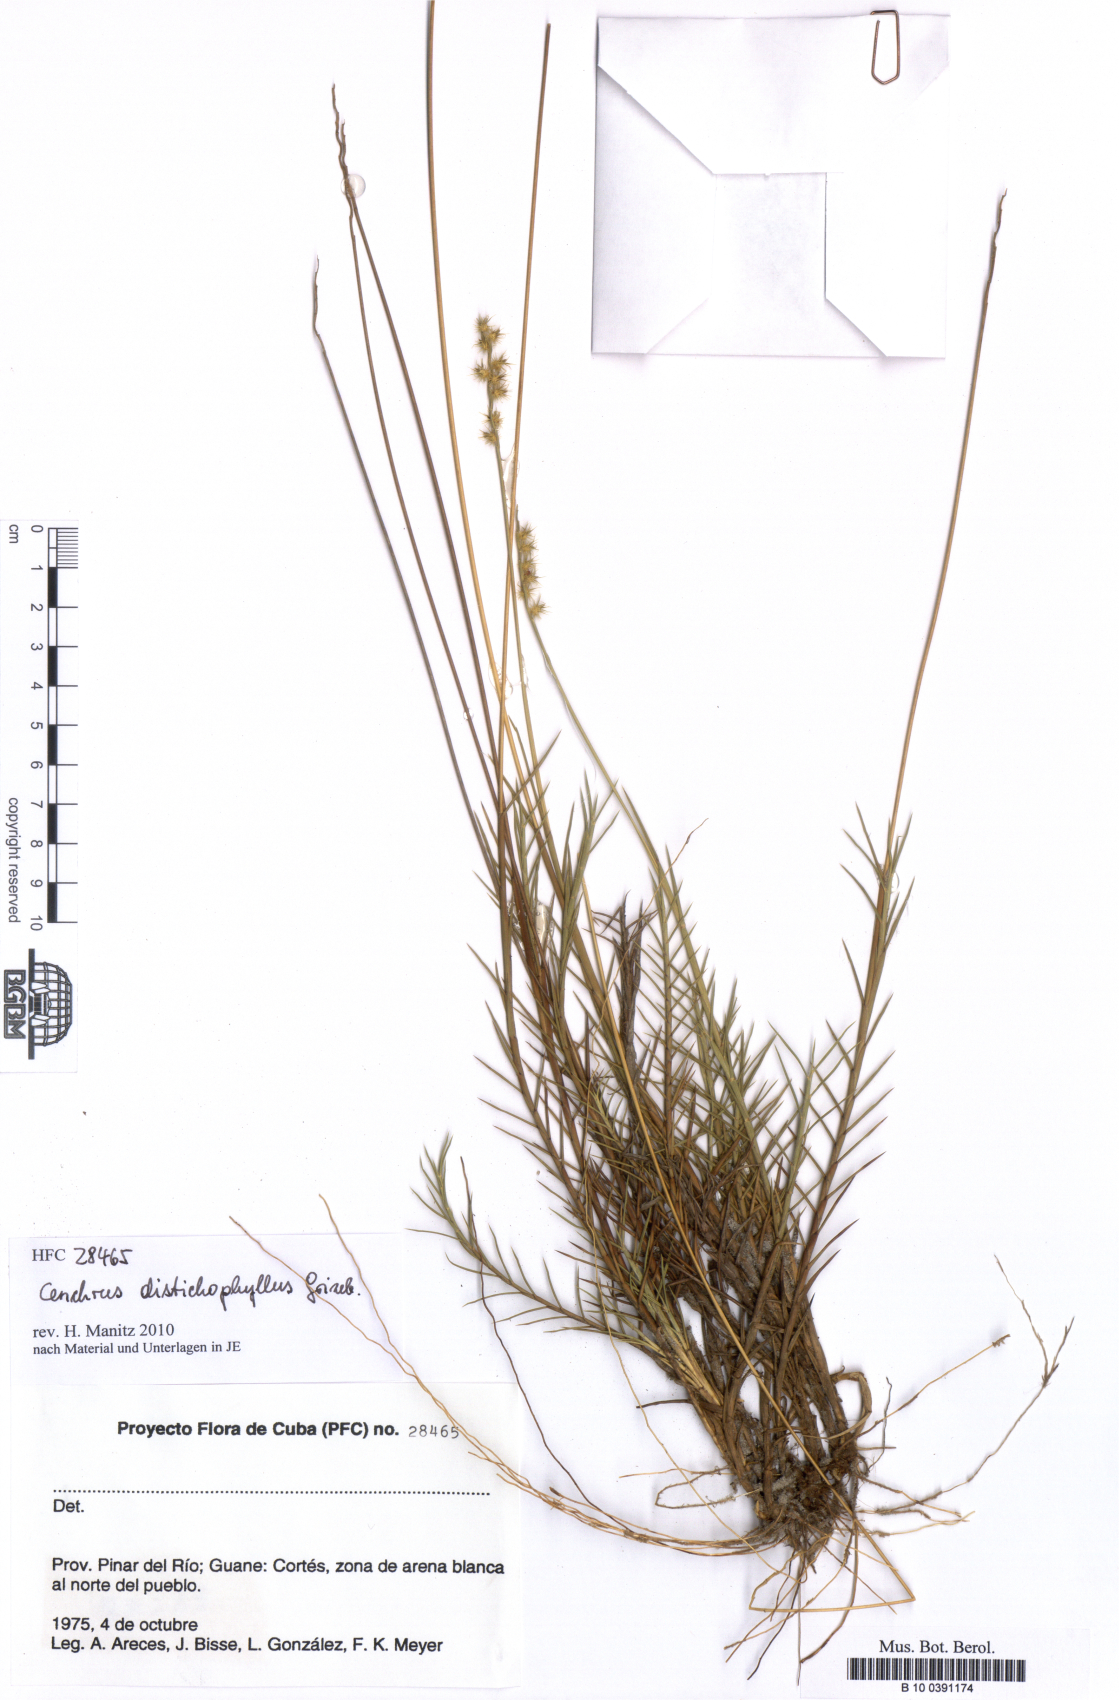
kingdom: Plantae
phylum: Tracheophyta
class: Liliopsida
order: Poales
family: Poaceae
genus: Cenchrus
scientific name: Cenchrus distichophyllus
